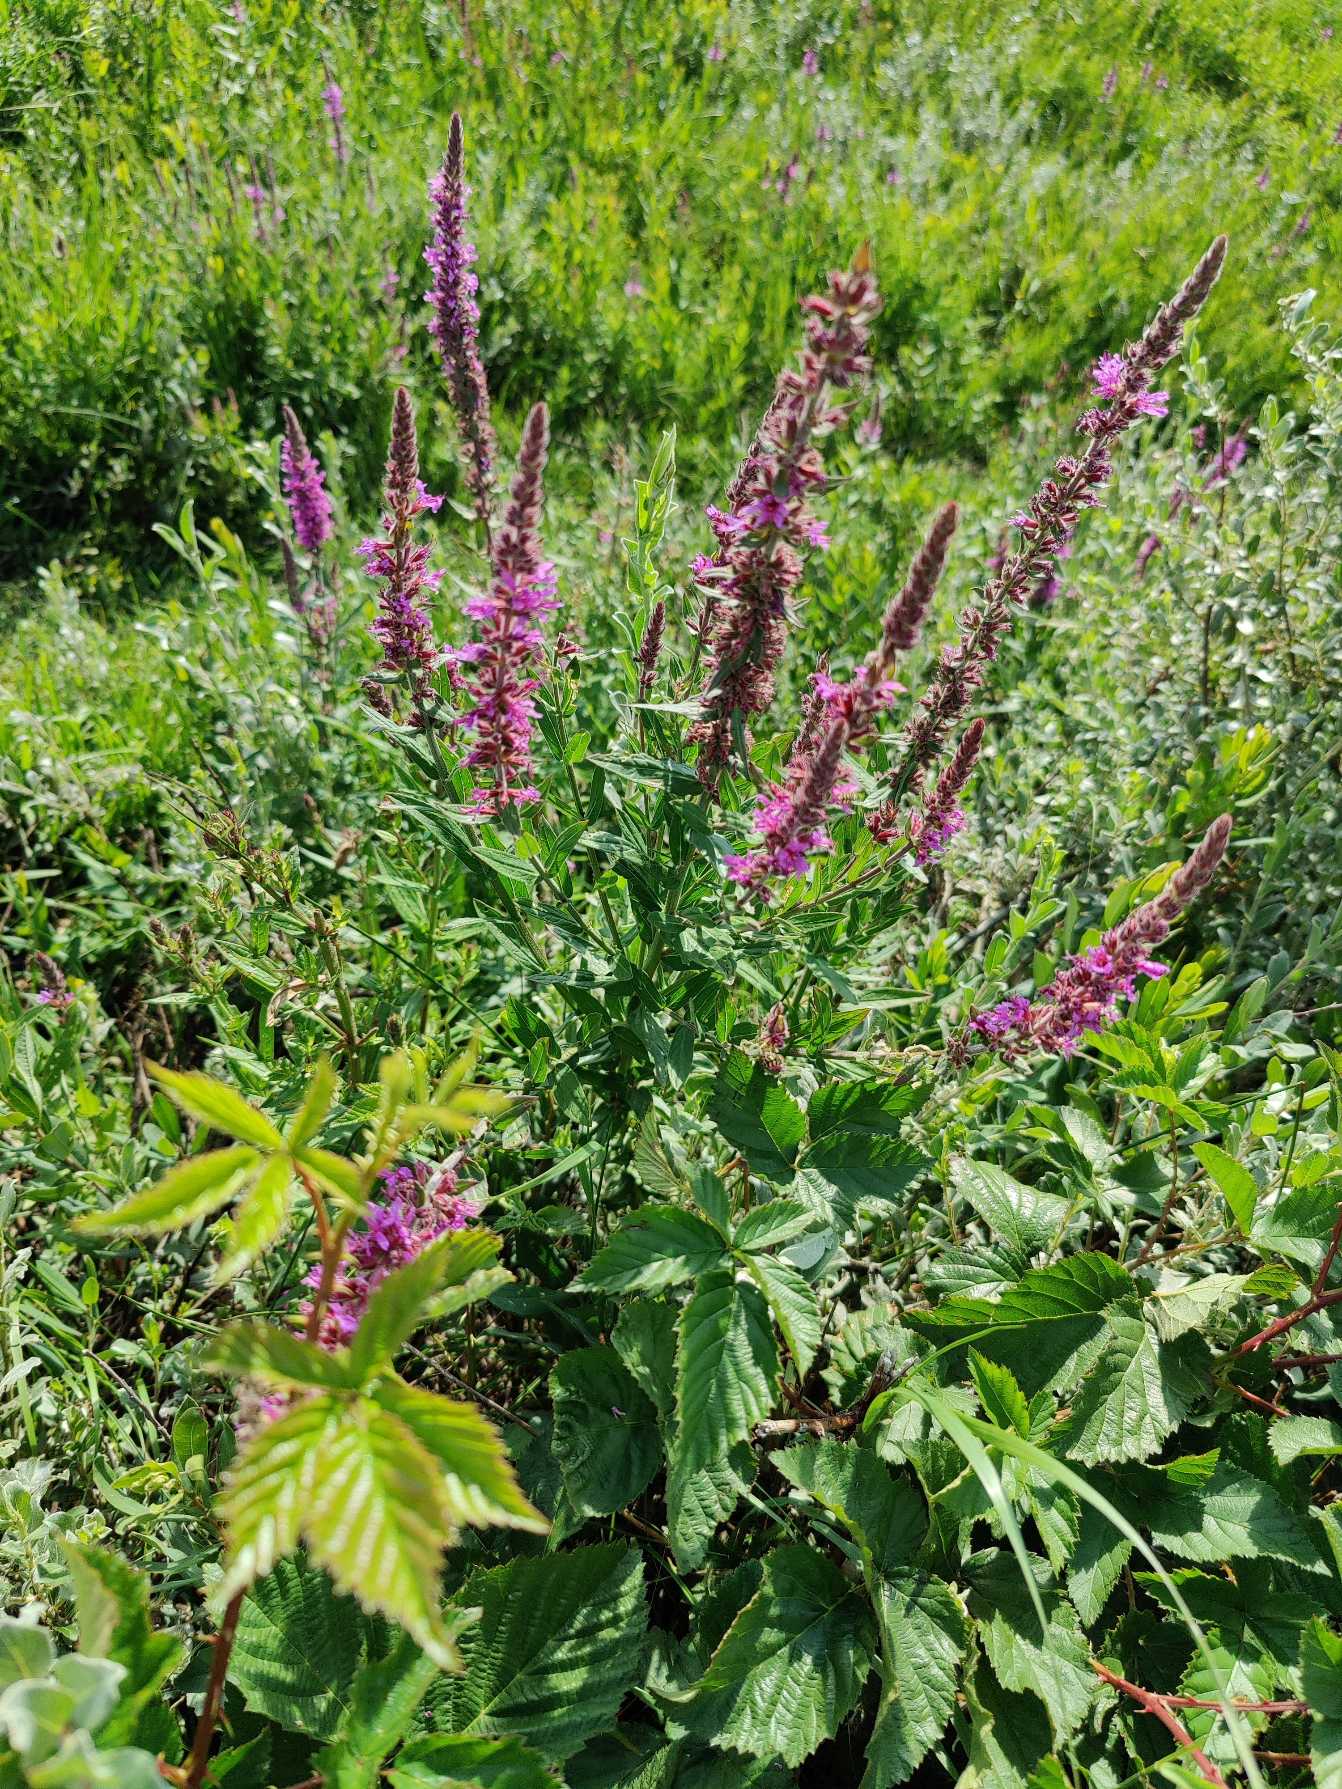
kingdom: Plantae
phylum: Tracheophyta
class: Magnoliopsida
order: Myrtales
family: Lythraceae
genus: Lythrum
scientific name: Lythrum salicaria
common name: Kattehale
